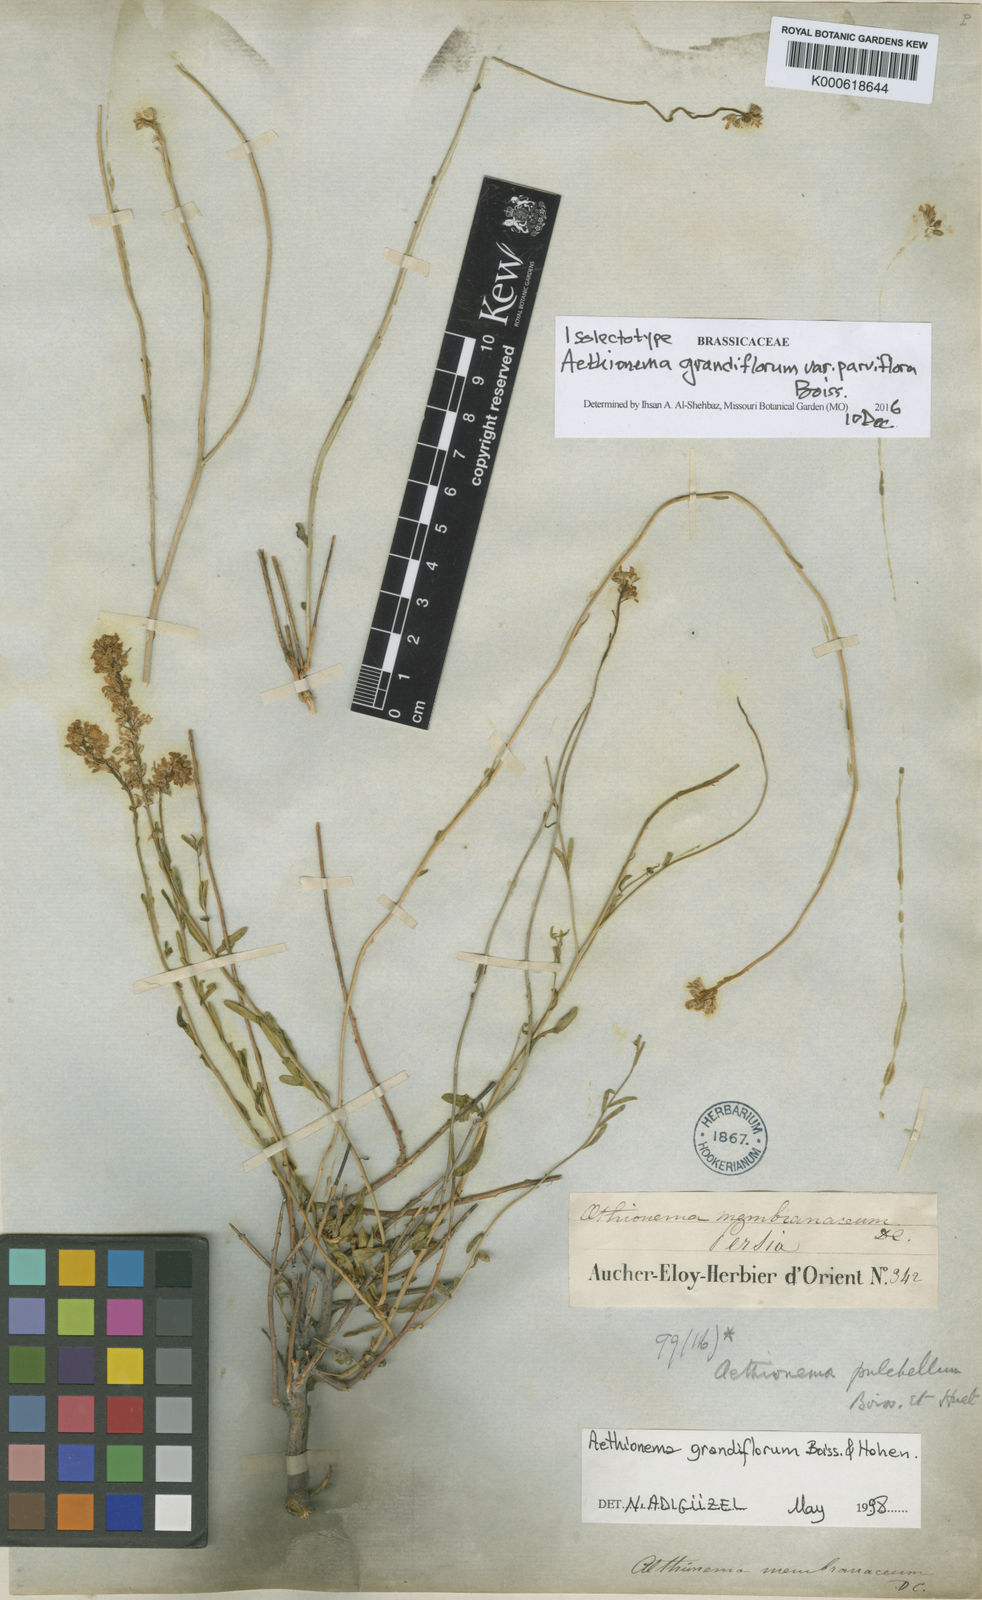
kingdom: Plantae
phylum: Tracheophyta
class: Magnoliopsida
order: Brassicales
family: Brassicaceae
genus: Aethionema
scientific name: Aethionema
